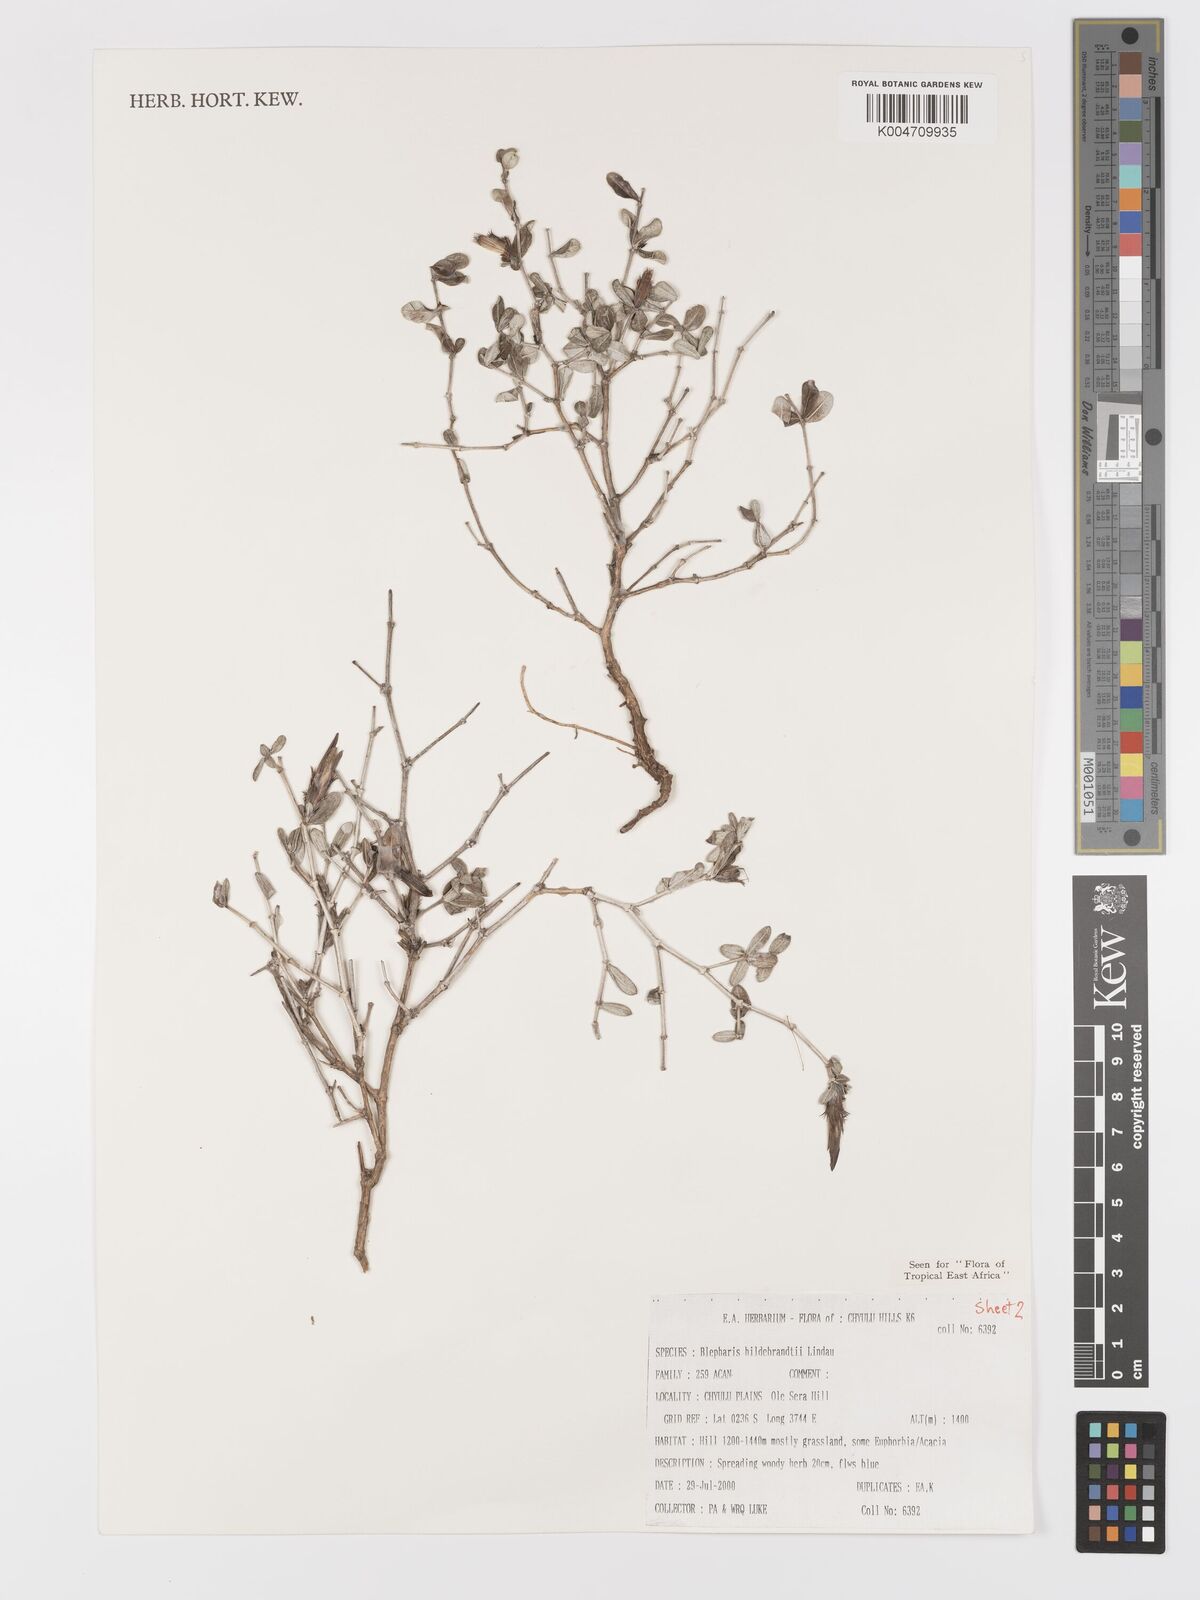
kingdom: Plantae
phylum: Tracheophyta
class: Magnoliopsida
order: Lamiales
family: Acanthaceae
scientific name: Acanthaceae
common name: Acanthaceae
